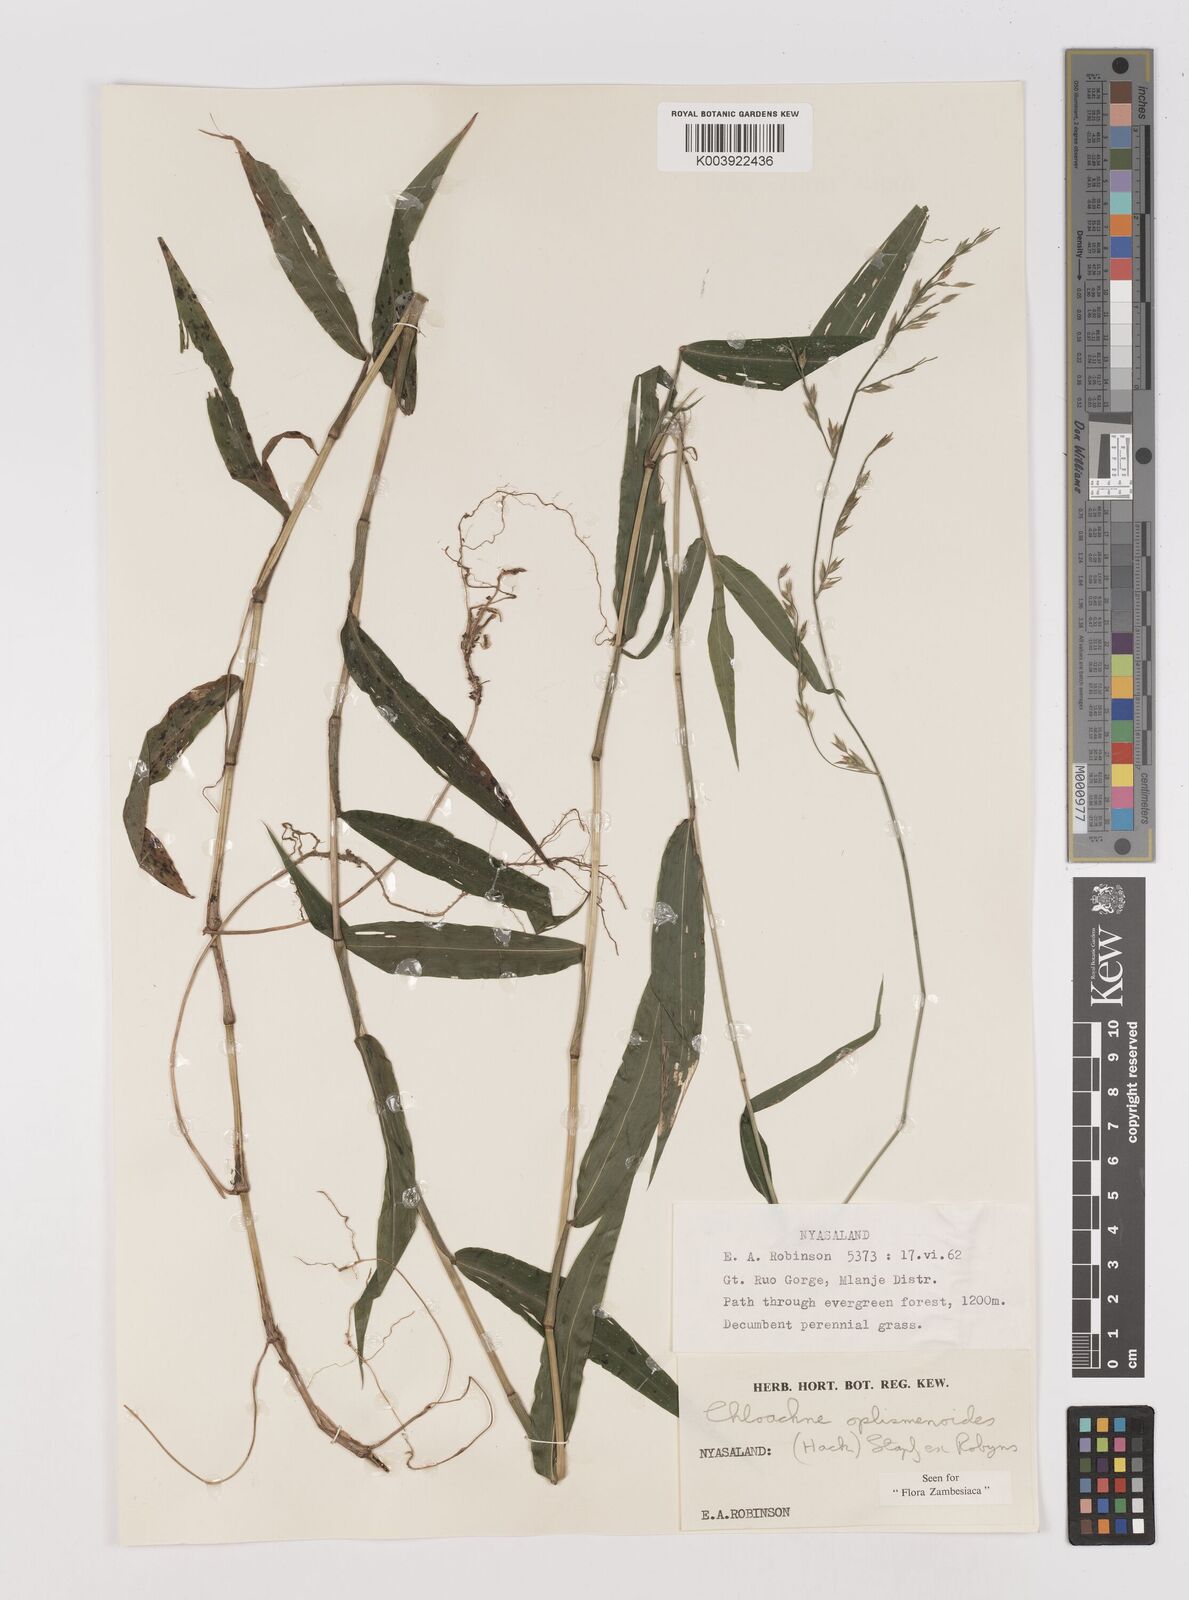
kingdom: Plantae
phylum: Tracheophyta
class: Liliopsida
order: Poales
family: Poaceae
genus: Poecilostachys
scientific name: Poecilostachys oplismenoides
